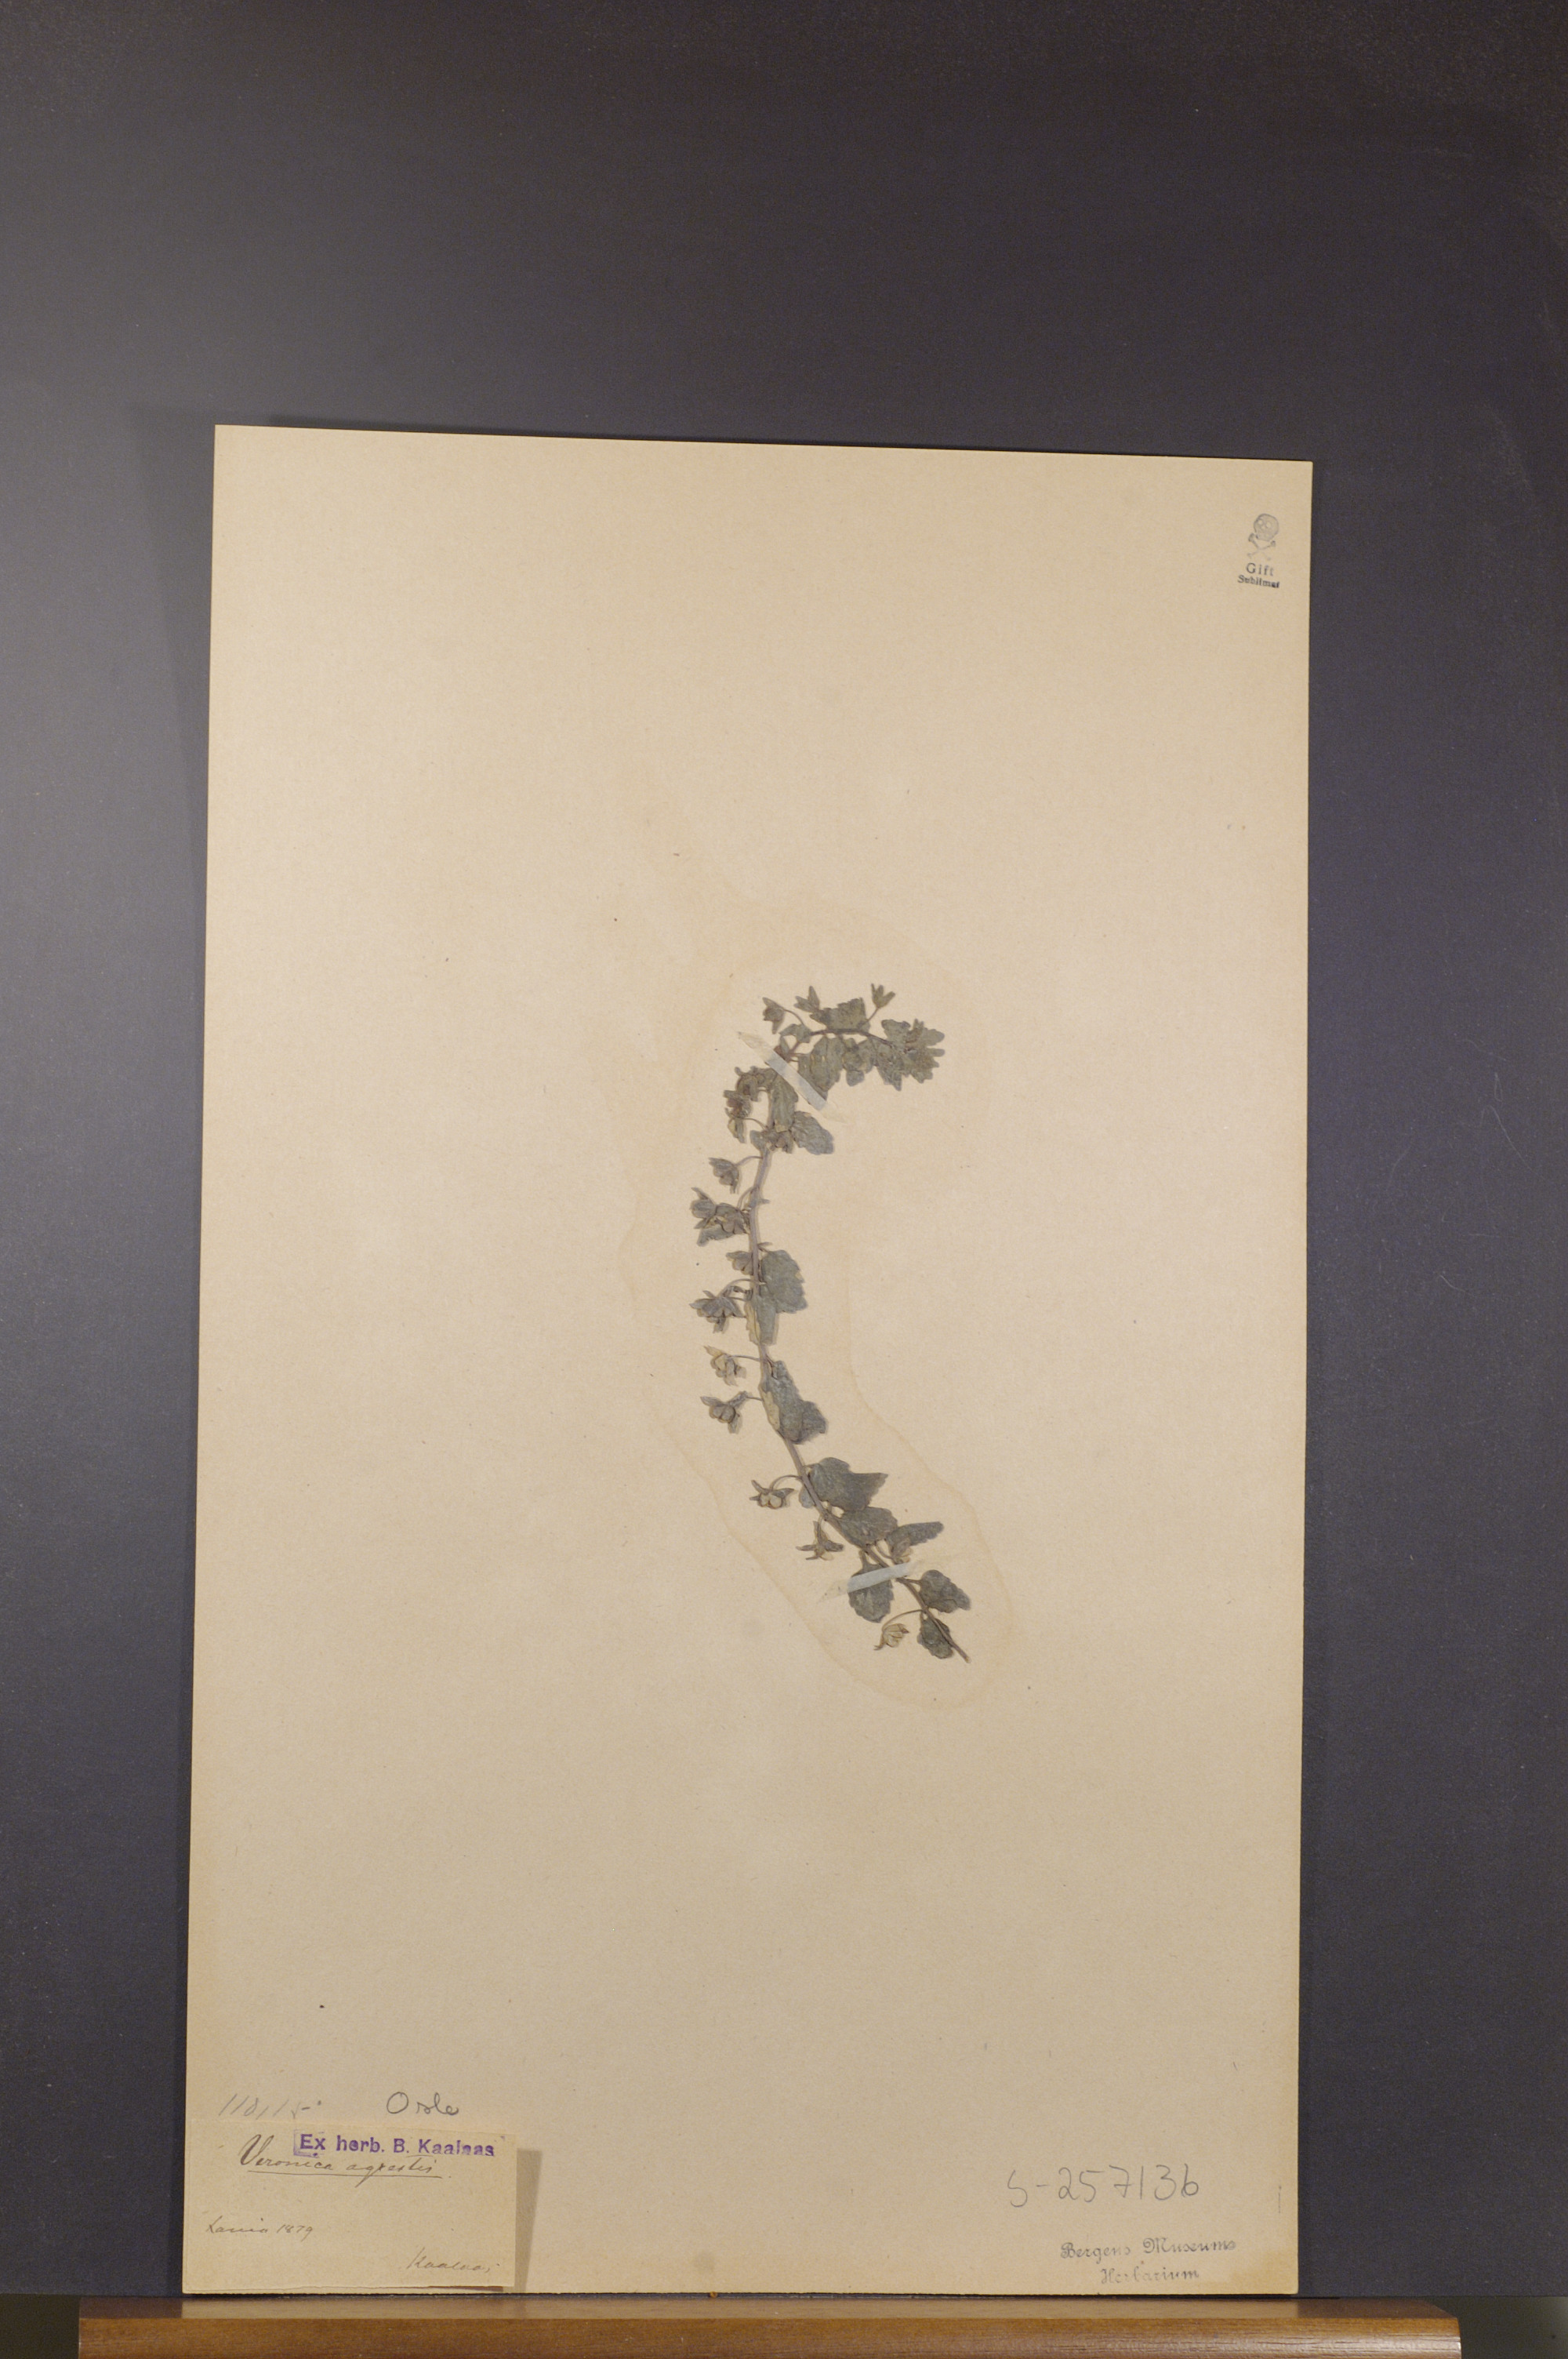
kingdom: Plantae
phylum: Tracheophyta
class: Magnoliopsida
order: Lamiales
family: Plantaginaceae
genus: Veronica
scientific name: Veronica agrestis
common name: Green field-speedwell
